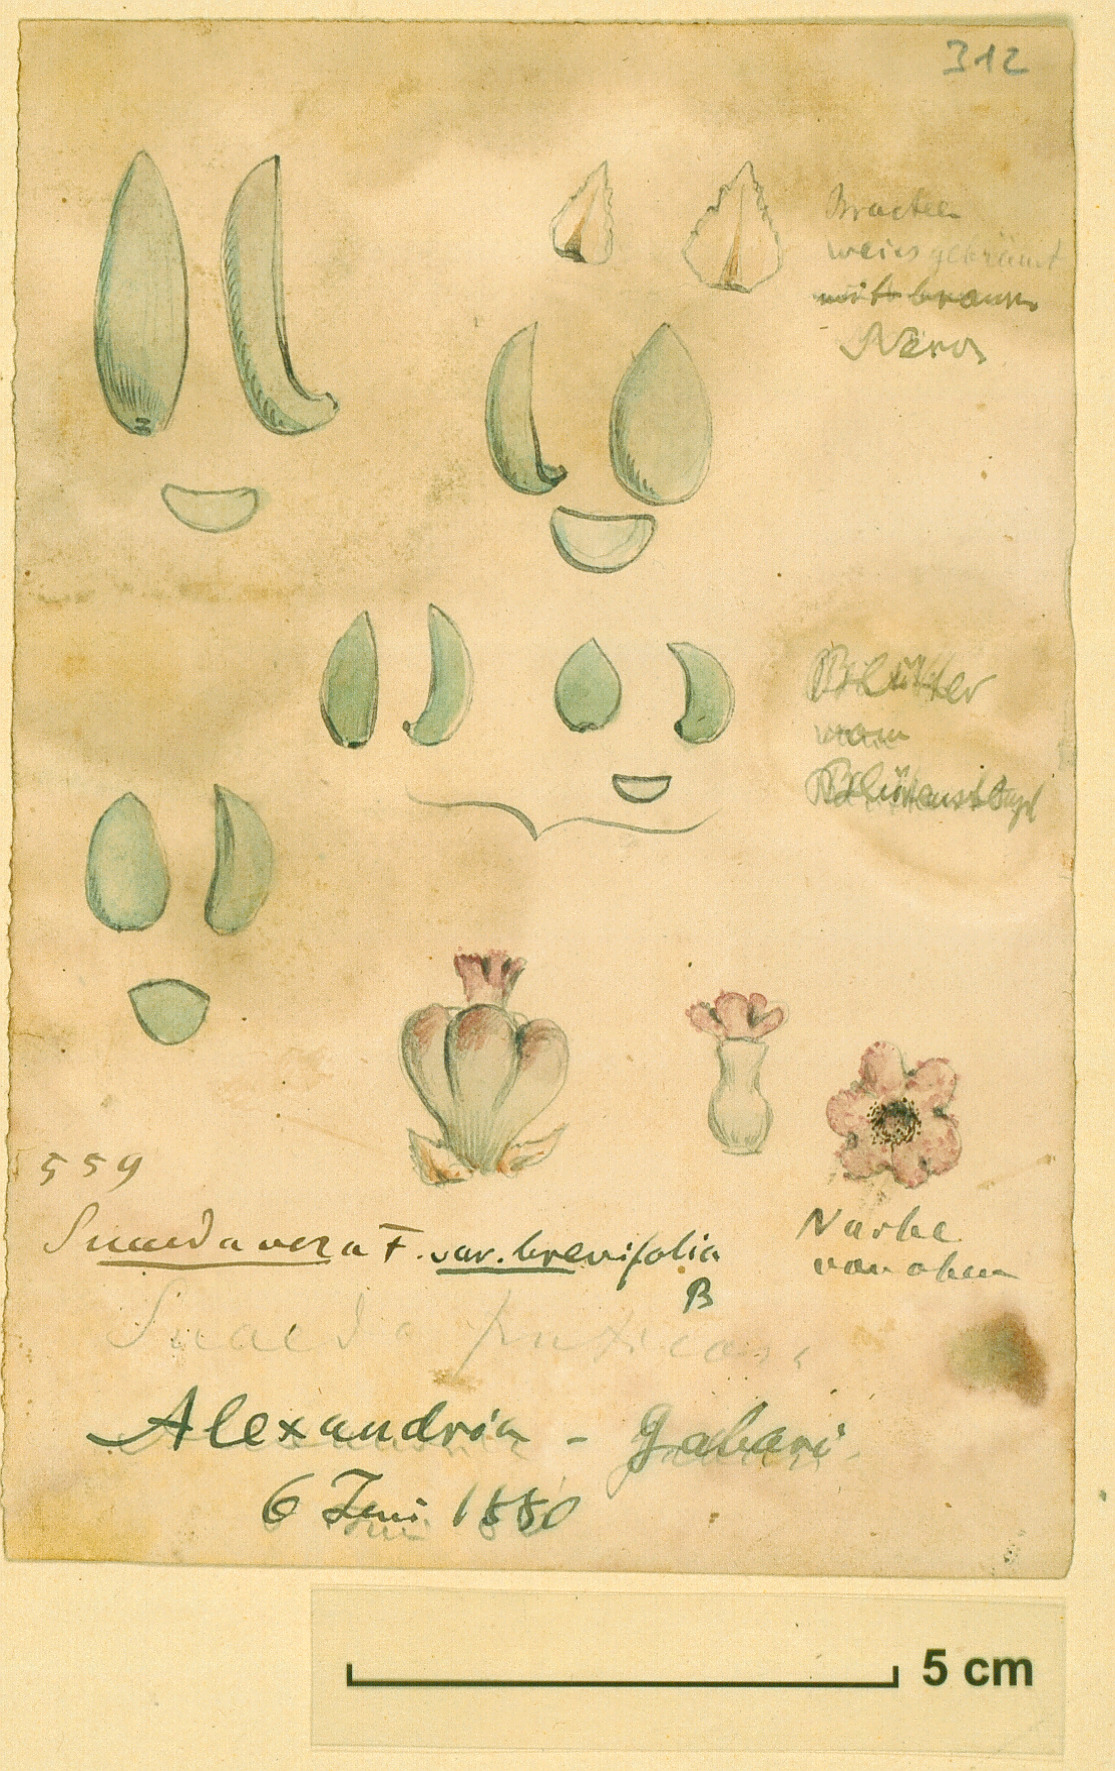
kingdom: Plantae
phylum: Tracheophyta
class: Magnoliopsida
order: Caryophyllales
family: Amaranthaceae
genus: Suaeda
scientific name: Suaeda monoica
